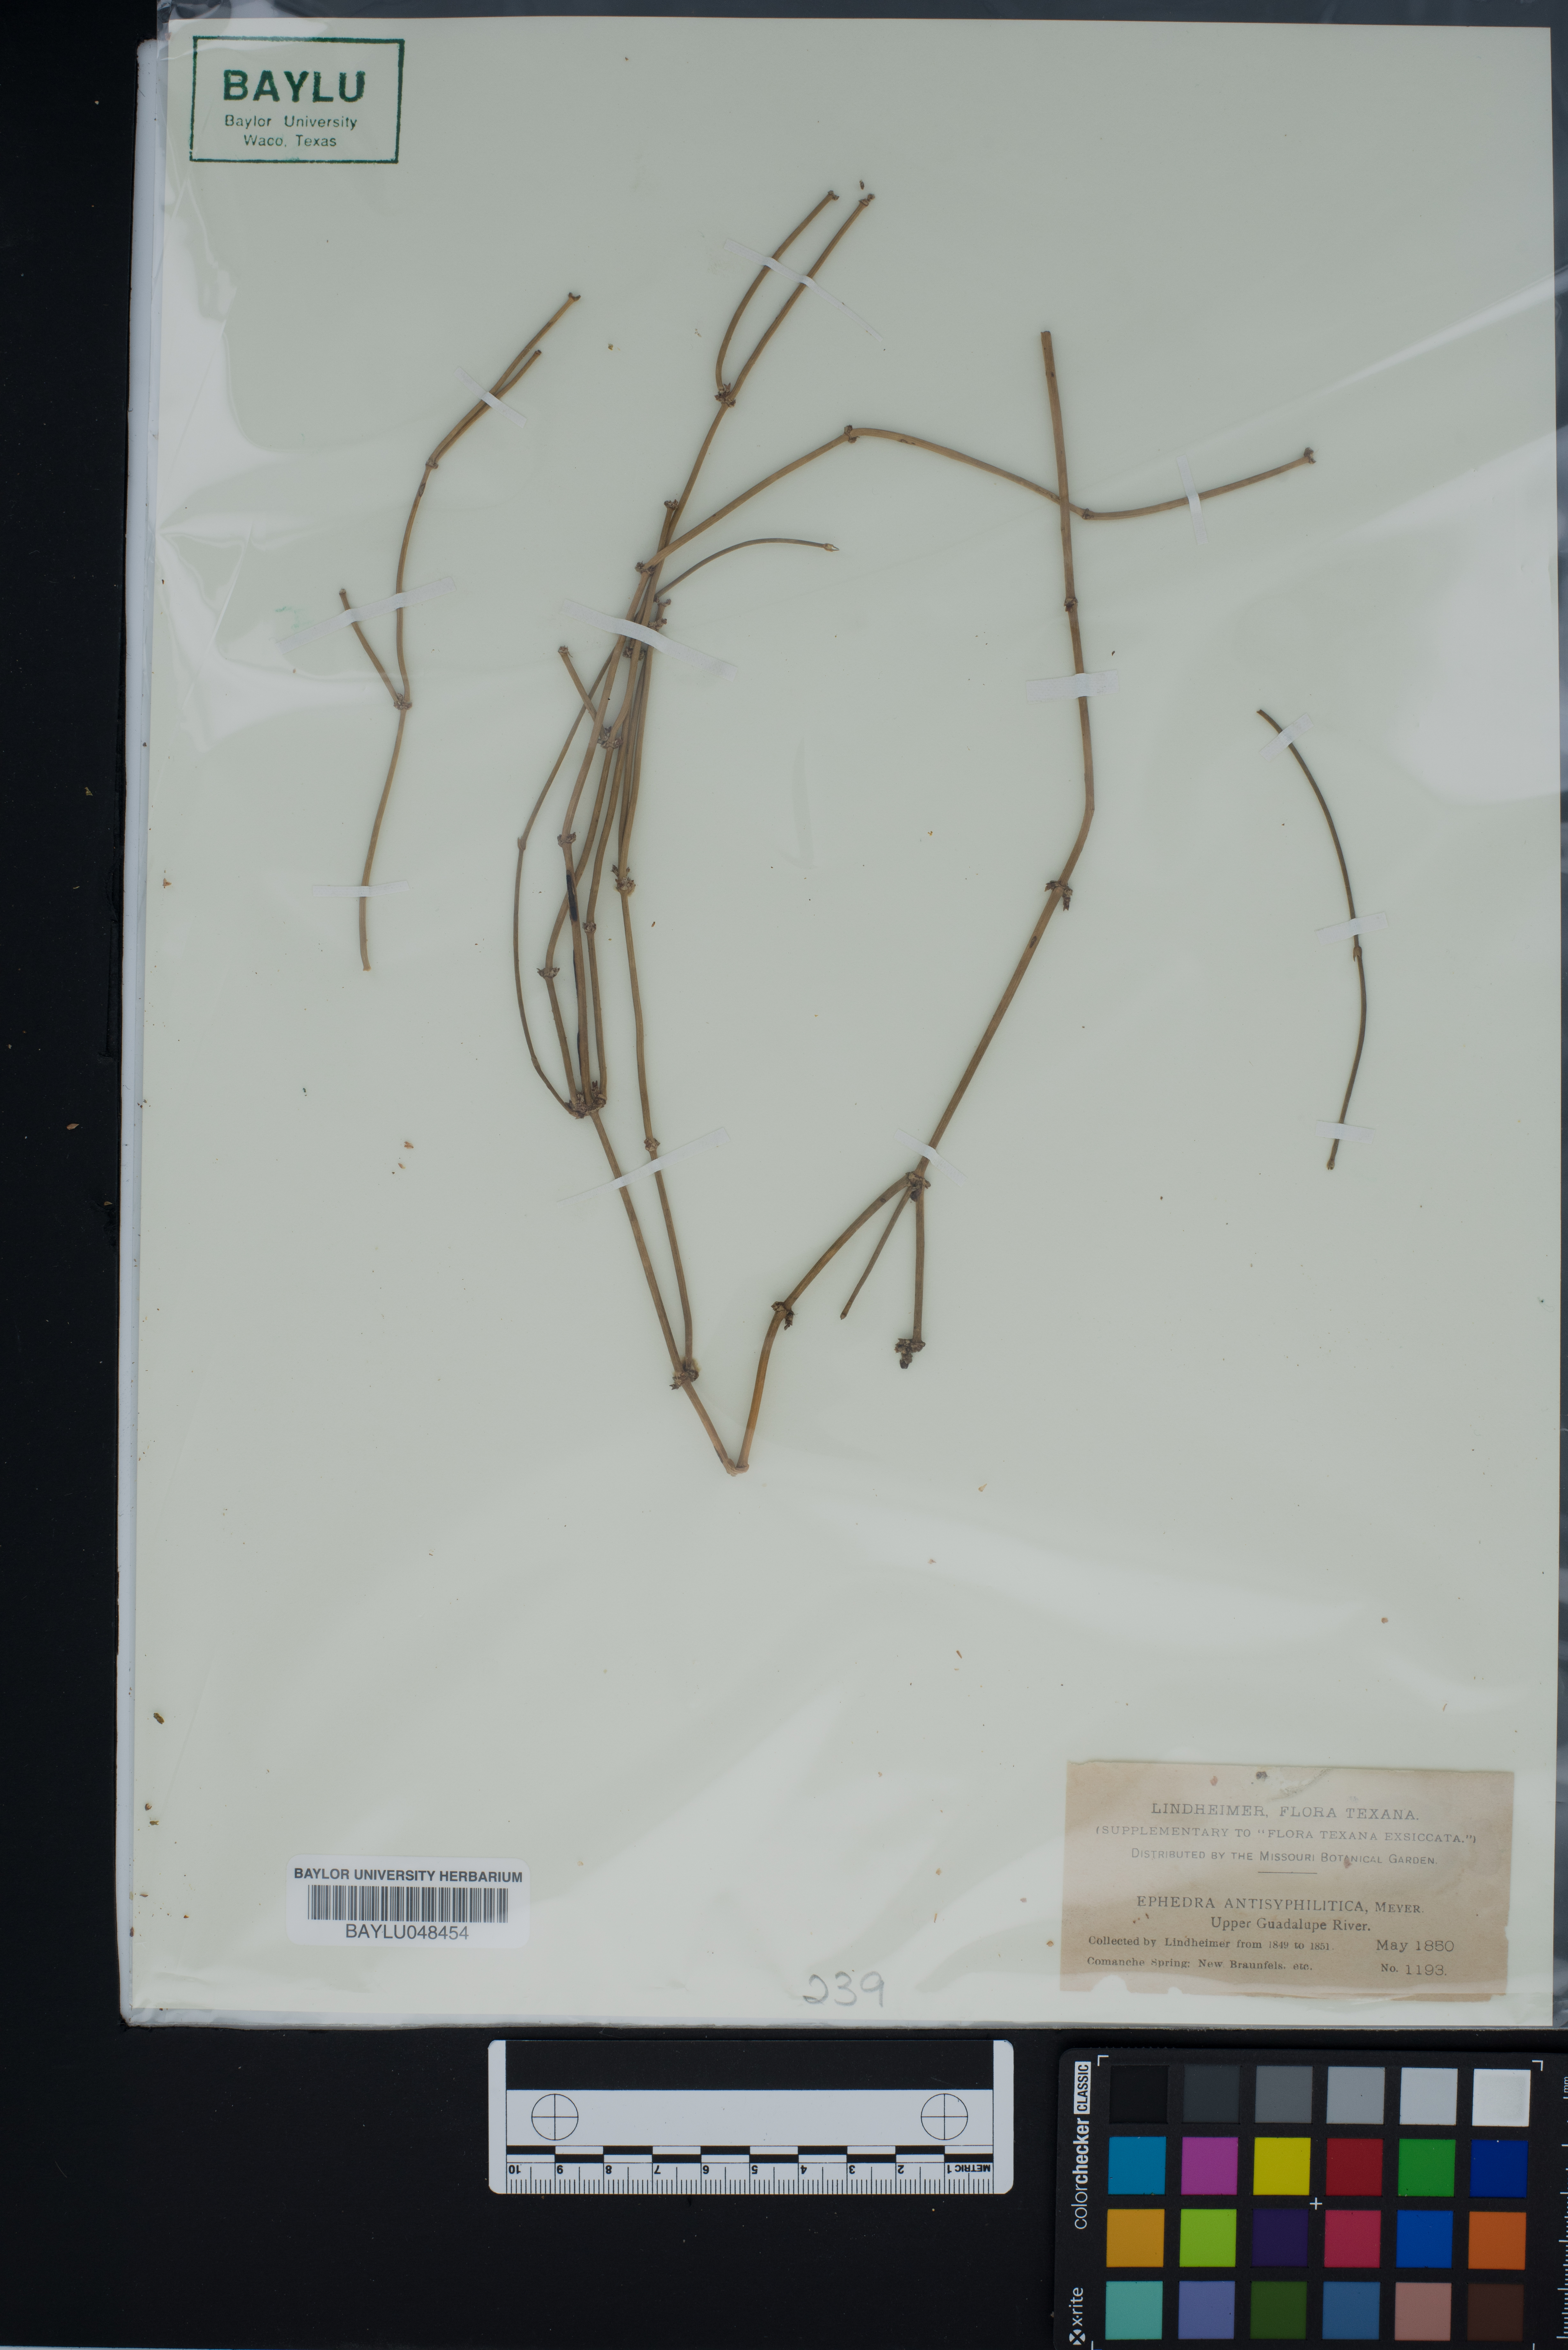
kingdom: Plantae
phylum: Tracheophyta
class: Gnetopsida
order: Ephedrales
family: Ephedraceae
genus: Ephedra
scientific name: Ephedra antisyphilitica
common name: Clipweed
